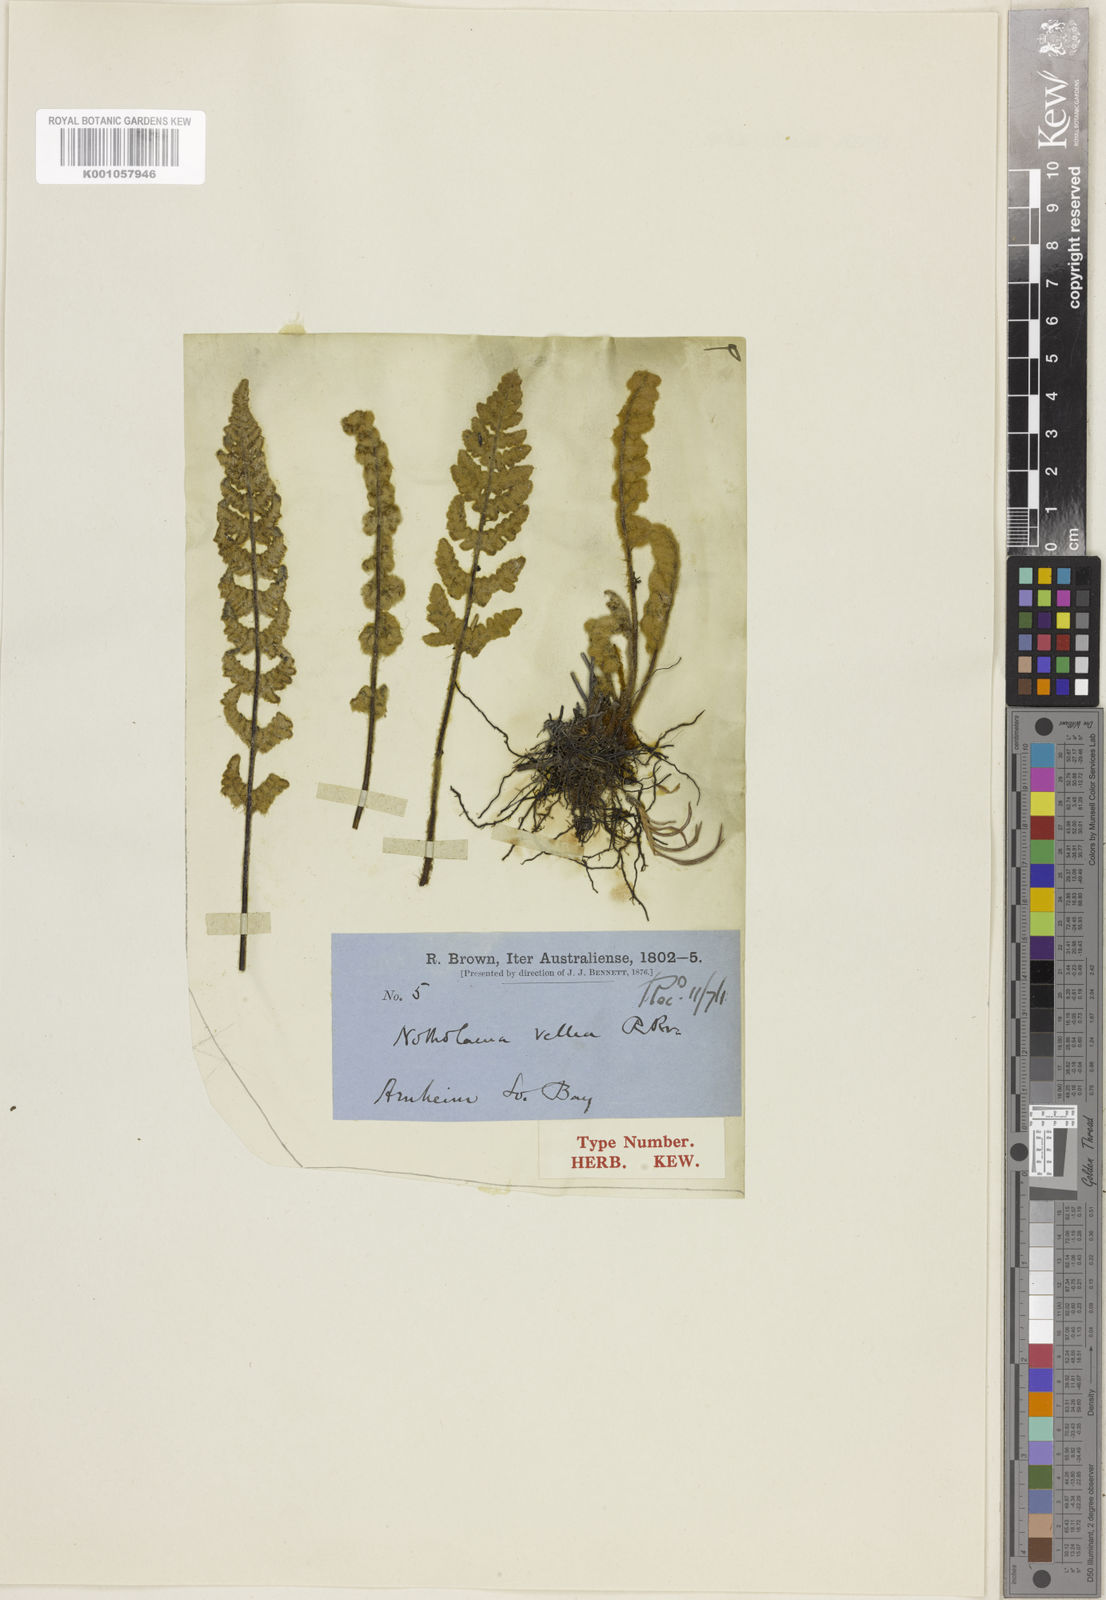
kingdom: Plantae
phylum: Tracheophyta
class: Polypodiopsida
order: Polypodiales
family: Pteridaceae
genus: Cheilanthes
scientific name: Cheilanthes brownii
